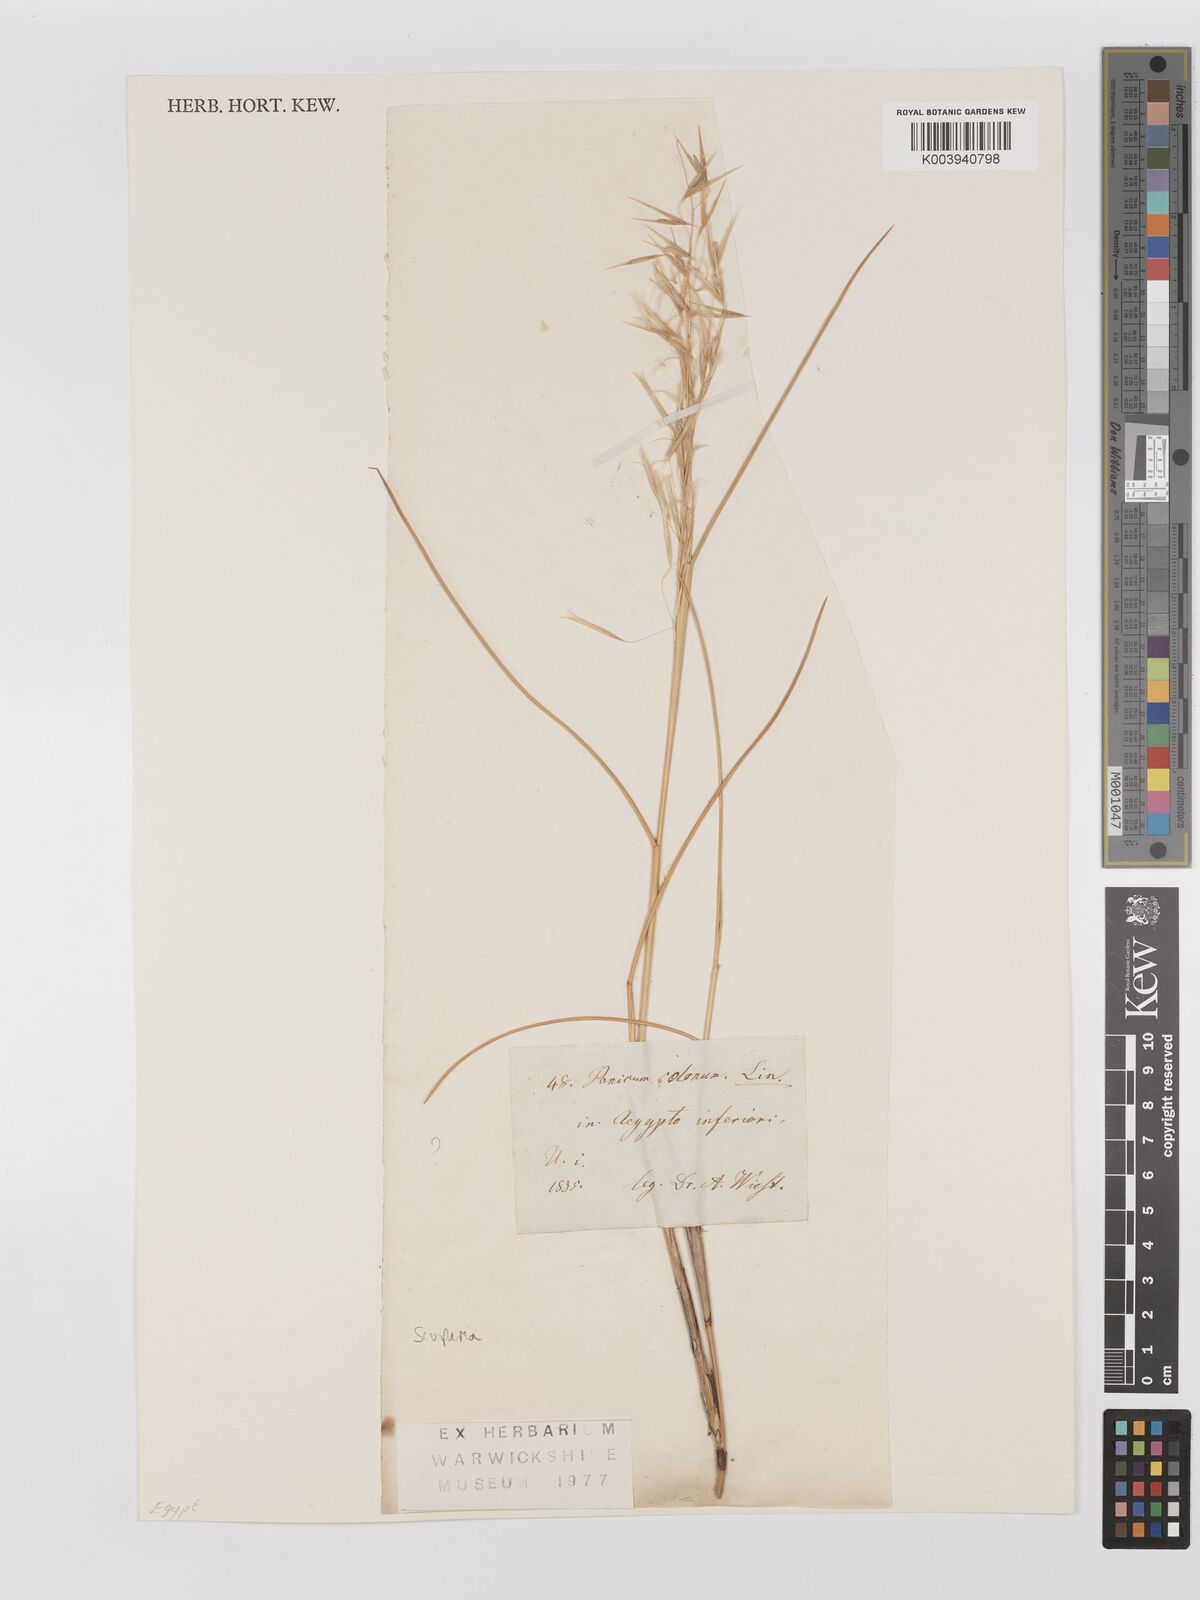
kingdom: Plantae
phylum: Tracheophyta
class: Liliopsida
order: Poales
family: Poaceae
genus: Stipagrostis
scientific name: Stipagrostis scoparia
